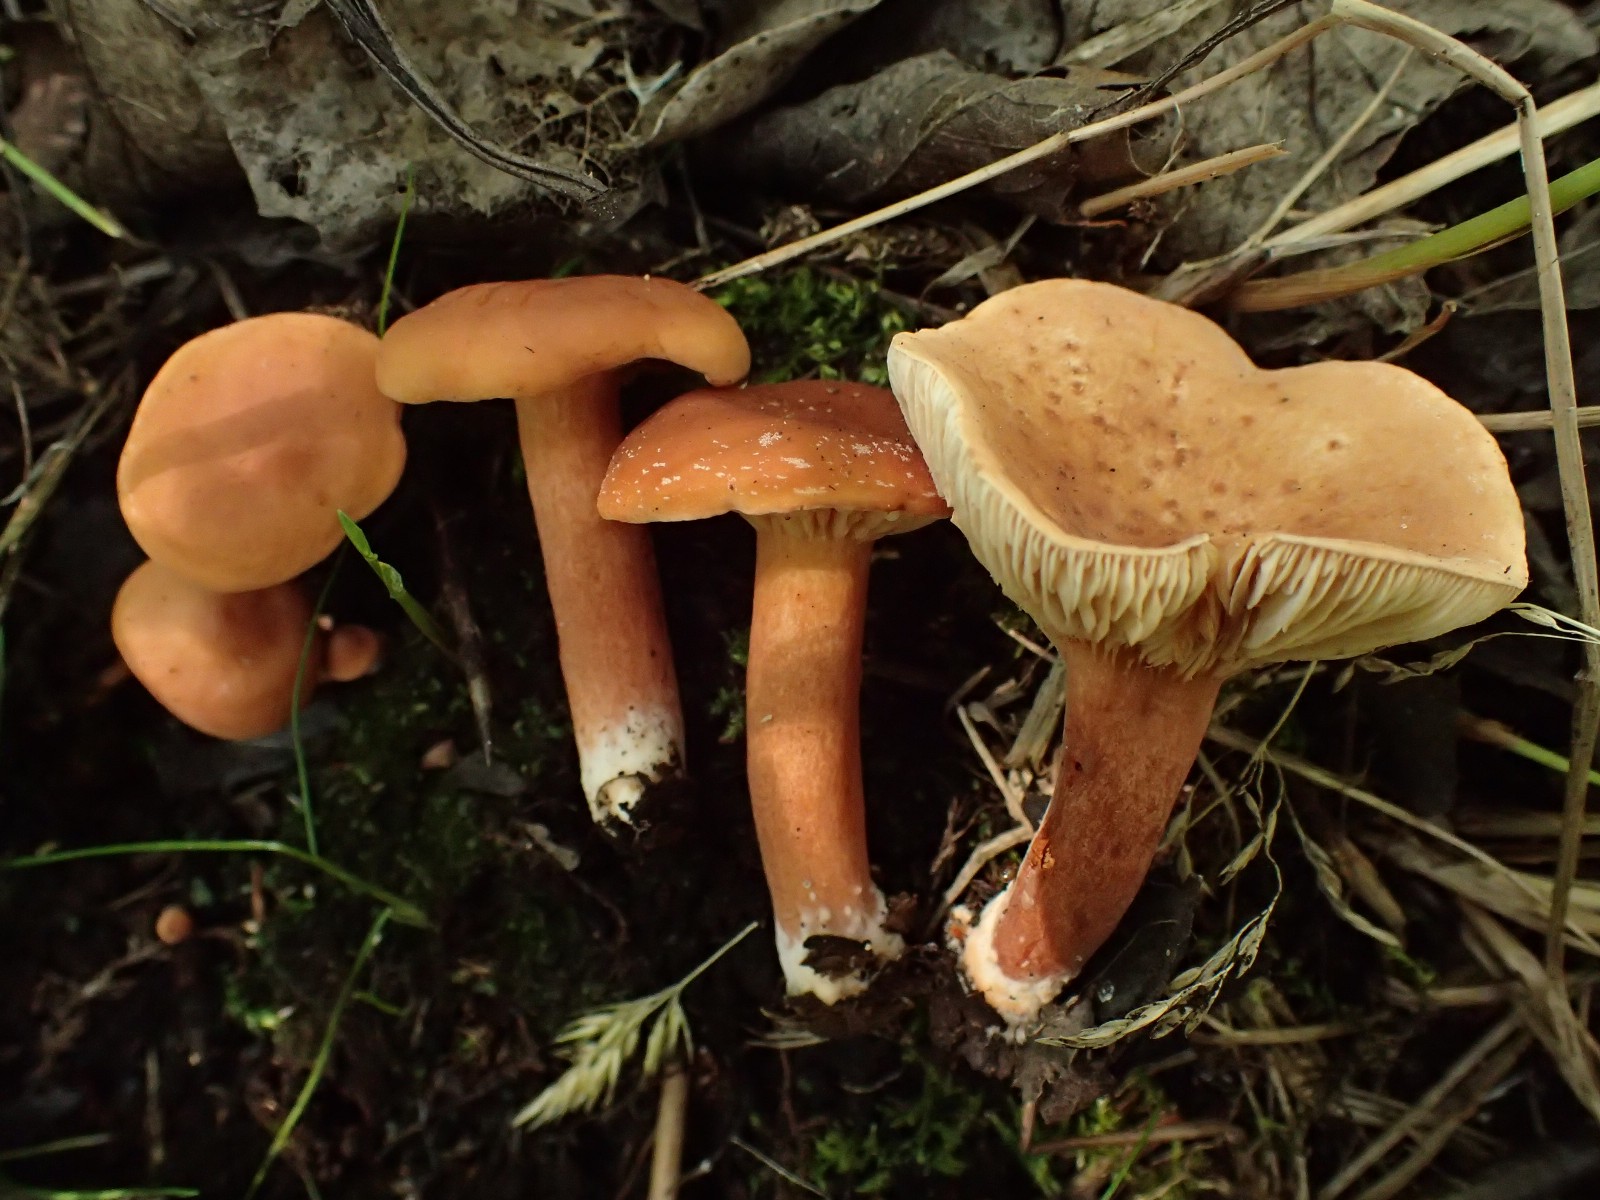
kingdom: Fungi
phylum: Basidiomycota
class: Agaricomycetes
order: Russulales
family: Russulaceae
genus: Lactarius
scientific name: Lactarius lacunarum
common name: sump-mælkehat
